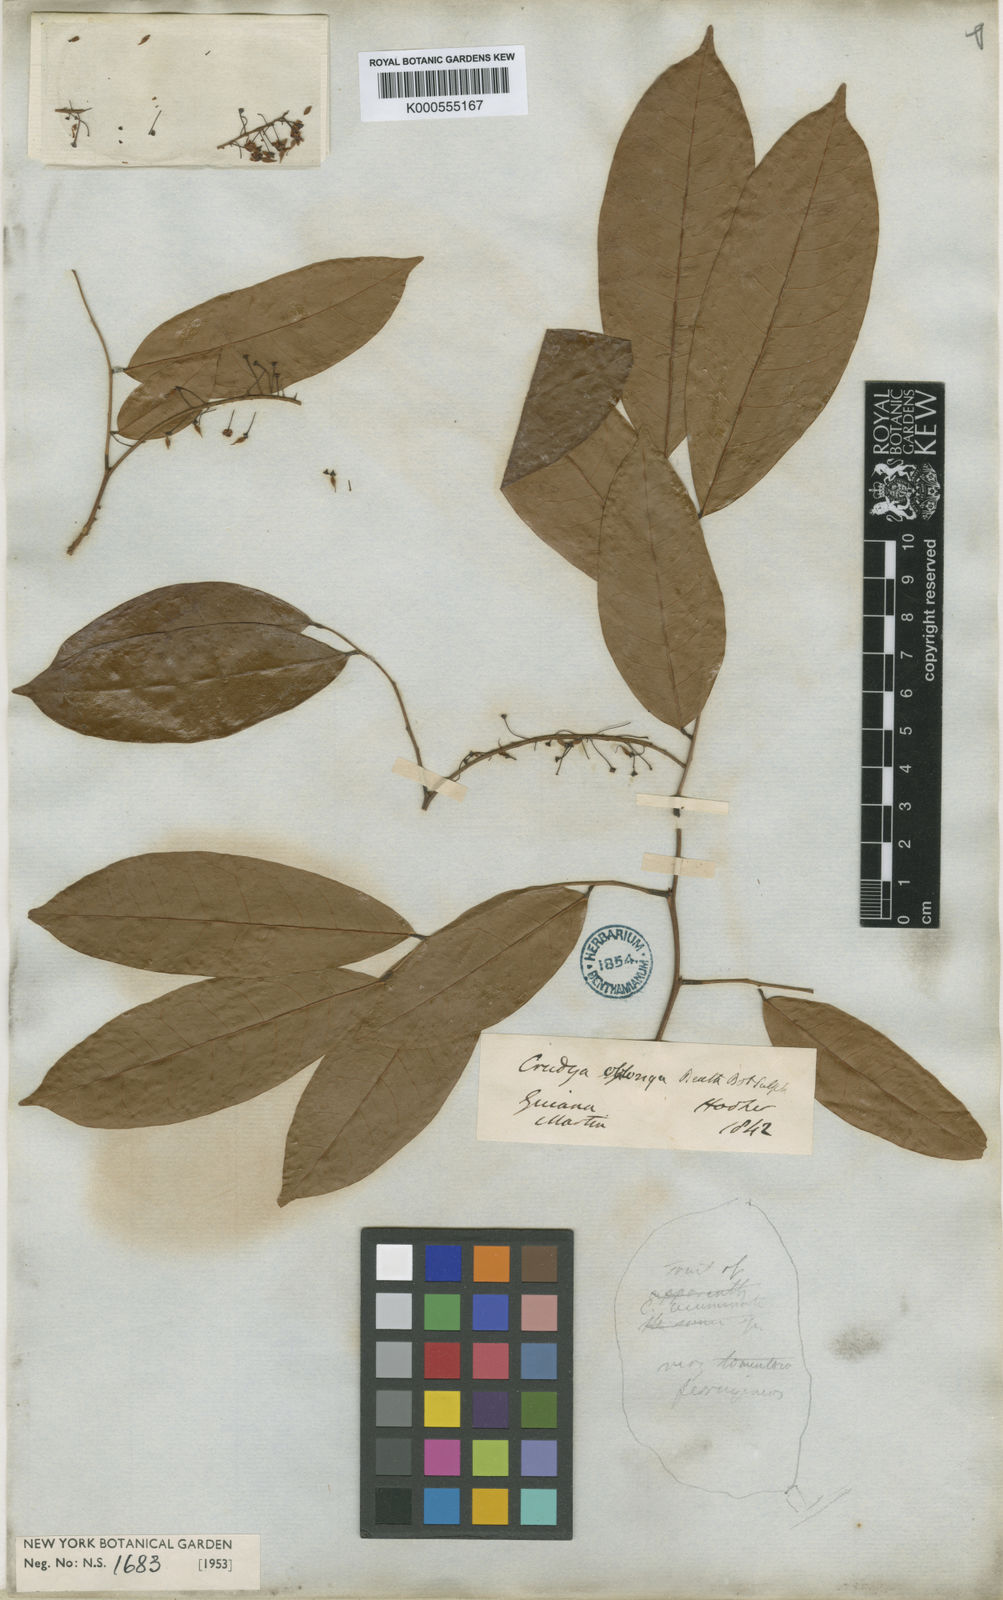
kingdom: Plantae
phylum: Tracheophyta
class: Magnoliopsida
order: Fabales
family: Fabaceae
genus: Crudia
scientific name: Crudia oblonga
